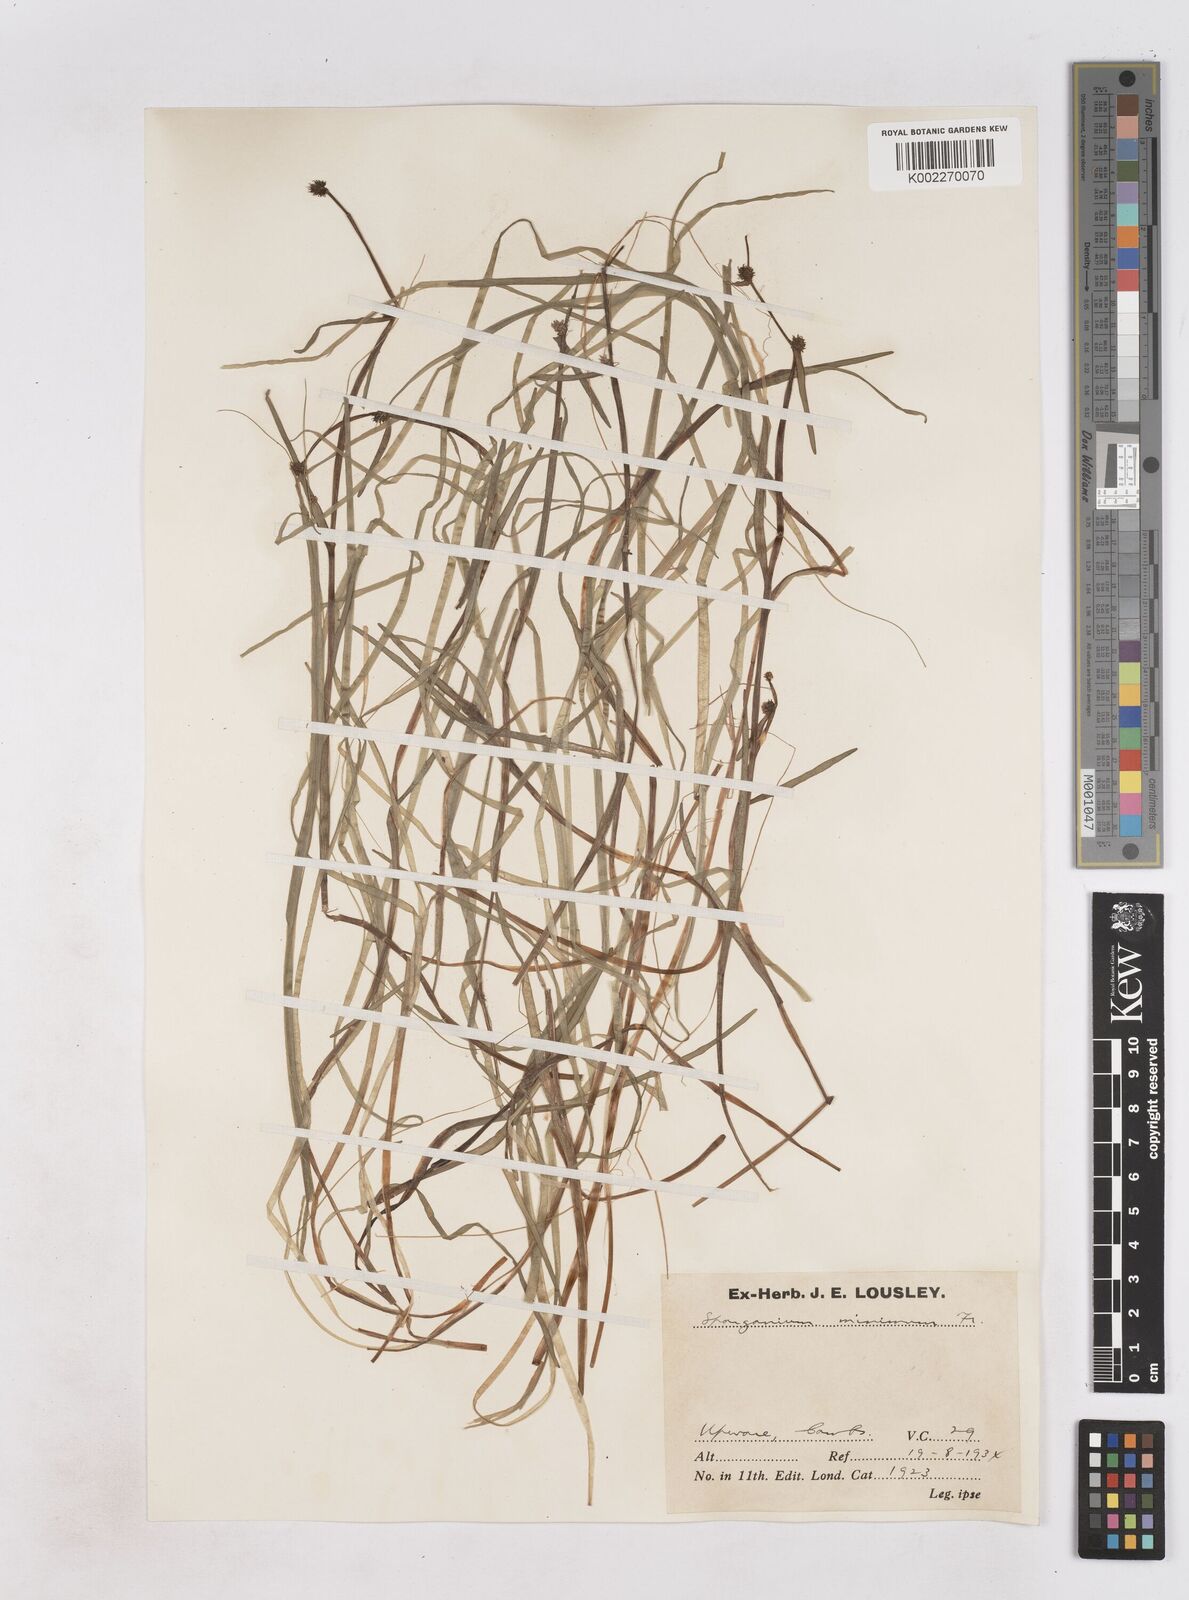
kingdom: Plantae
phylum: Tracheophyta
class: Liliopsida
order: Poales
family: Typhaceae
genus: Sparganium
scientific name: Sparganium natans
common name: Least bur-reed
